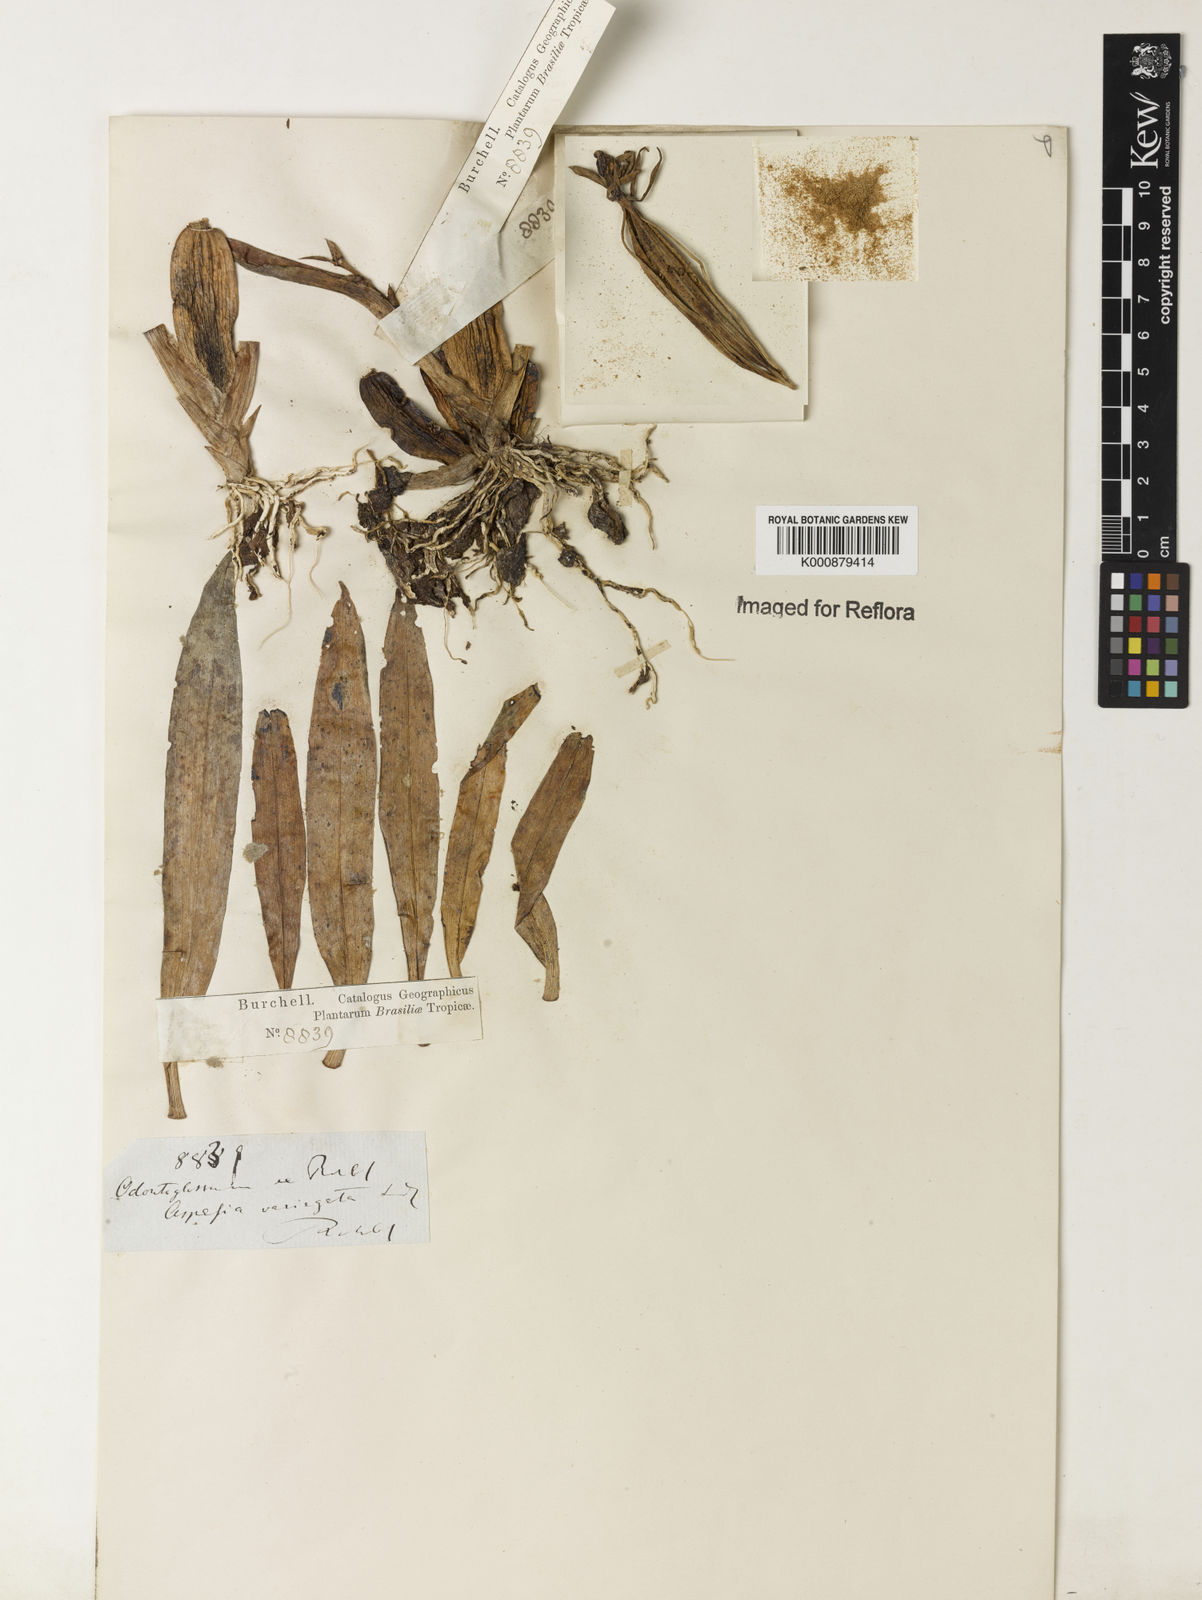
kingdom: Plantae
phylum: Tracheophyta
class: Liliopsida
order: Asparagales
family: Orchidaceae
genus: Aspasia
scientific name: Aspasia variegata
